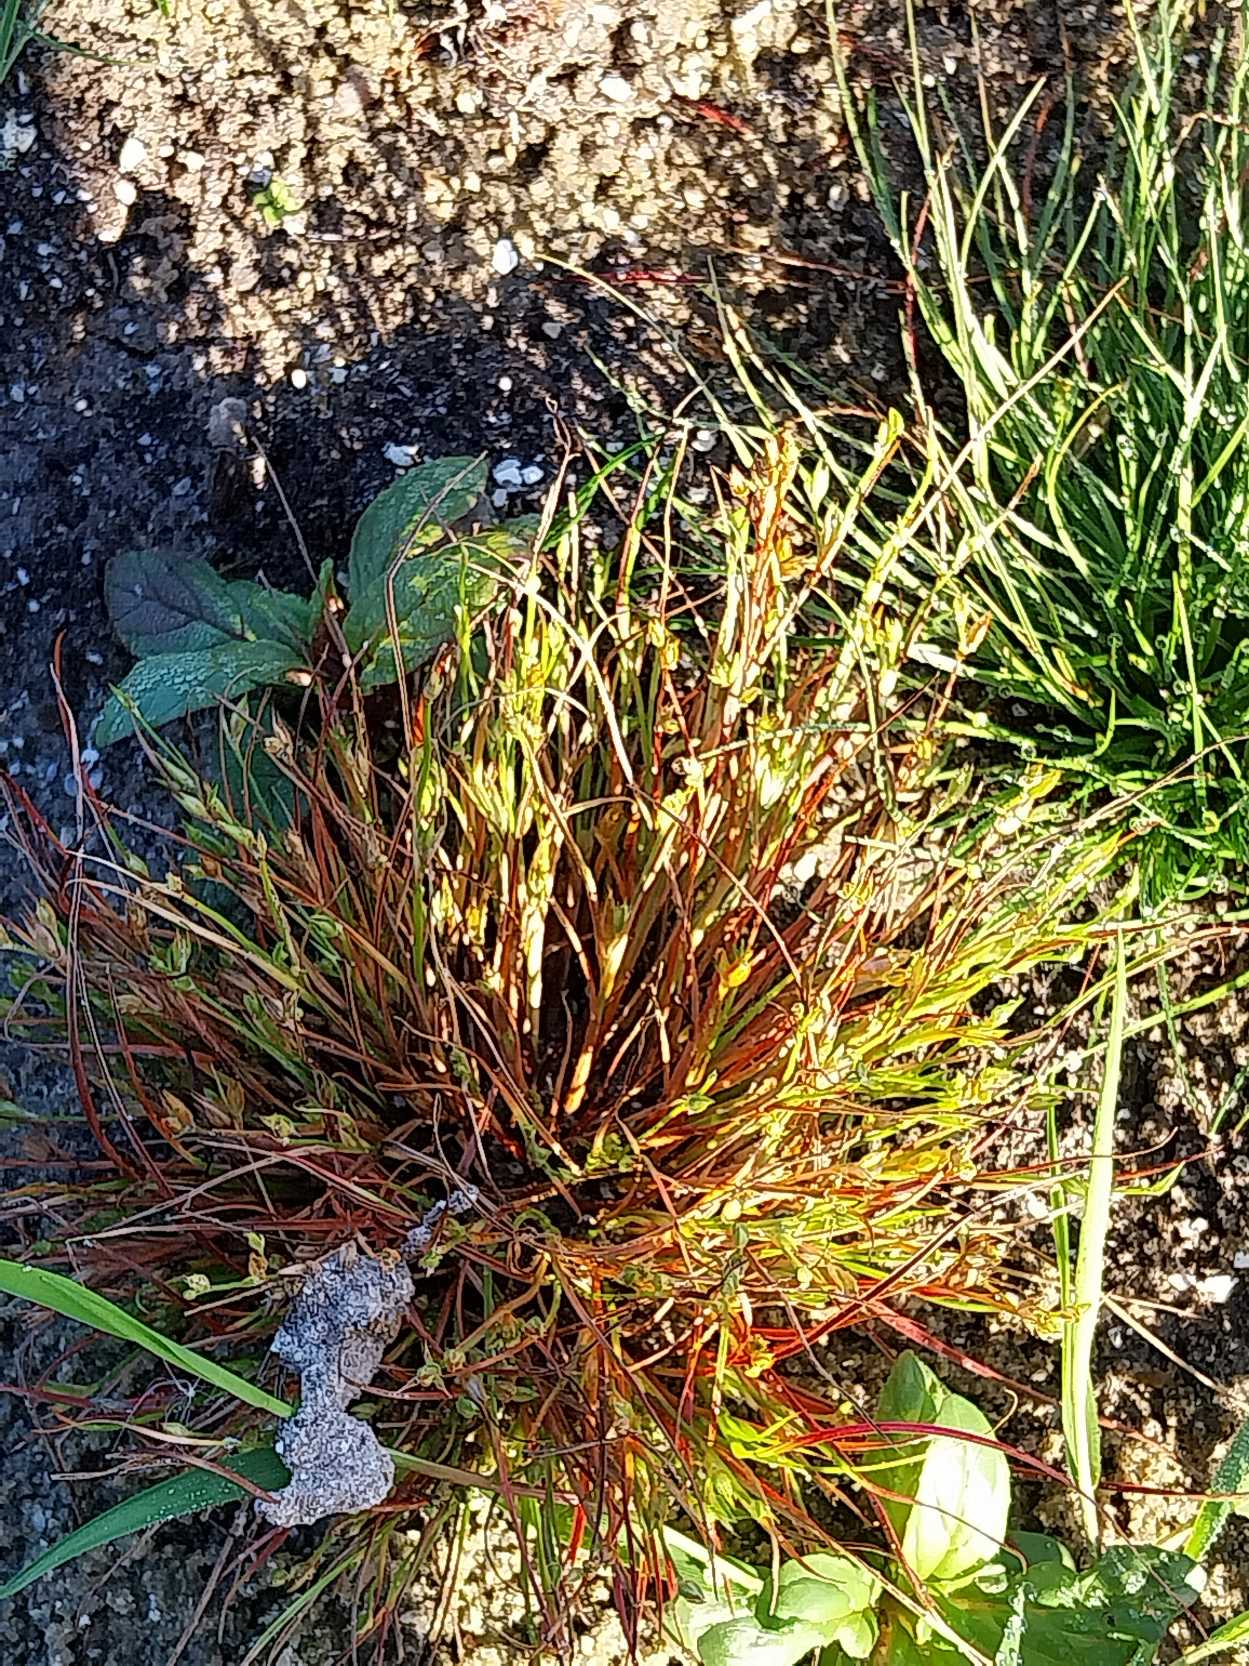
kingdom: Plantae
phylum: Tracheophyta
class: Liliopsida
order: Poales
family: Juncaceae
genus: Juncus
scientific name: Juncus bufonius
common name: Tudse-siv
